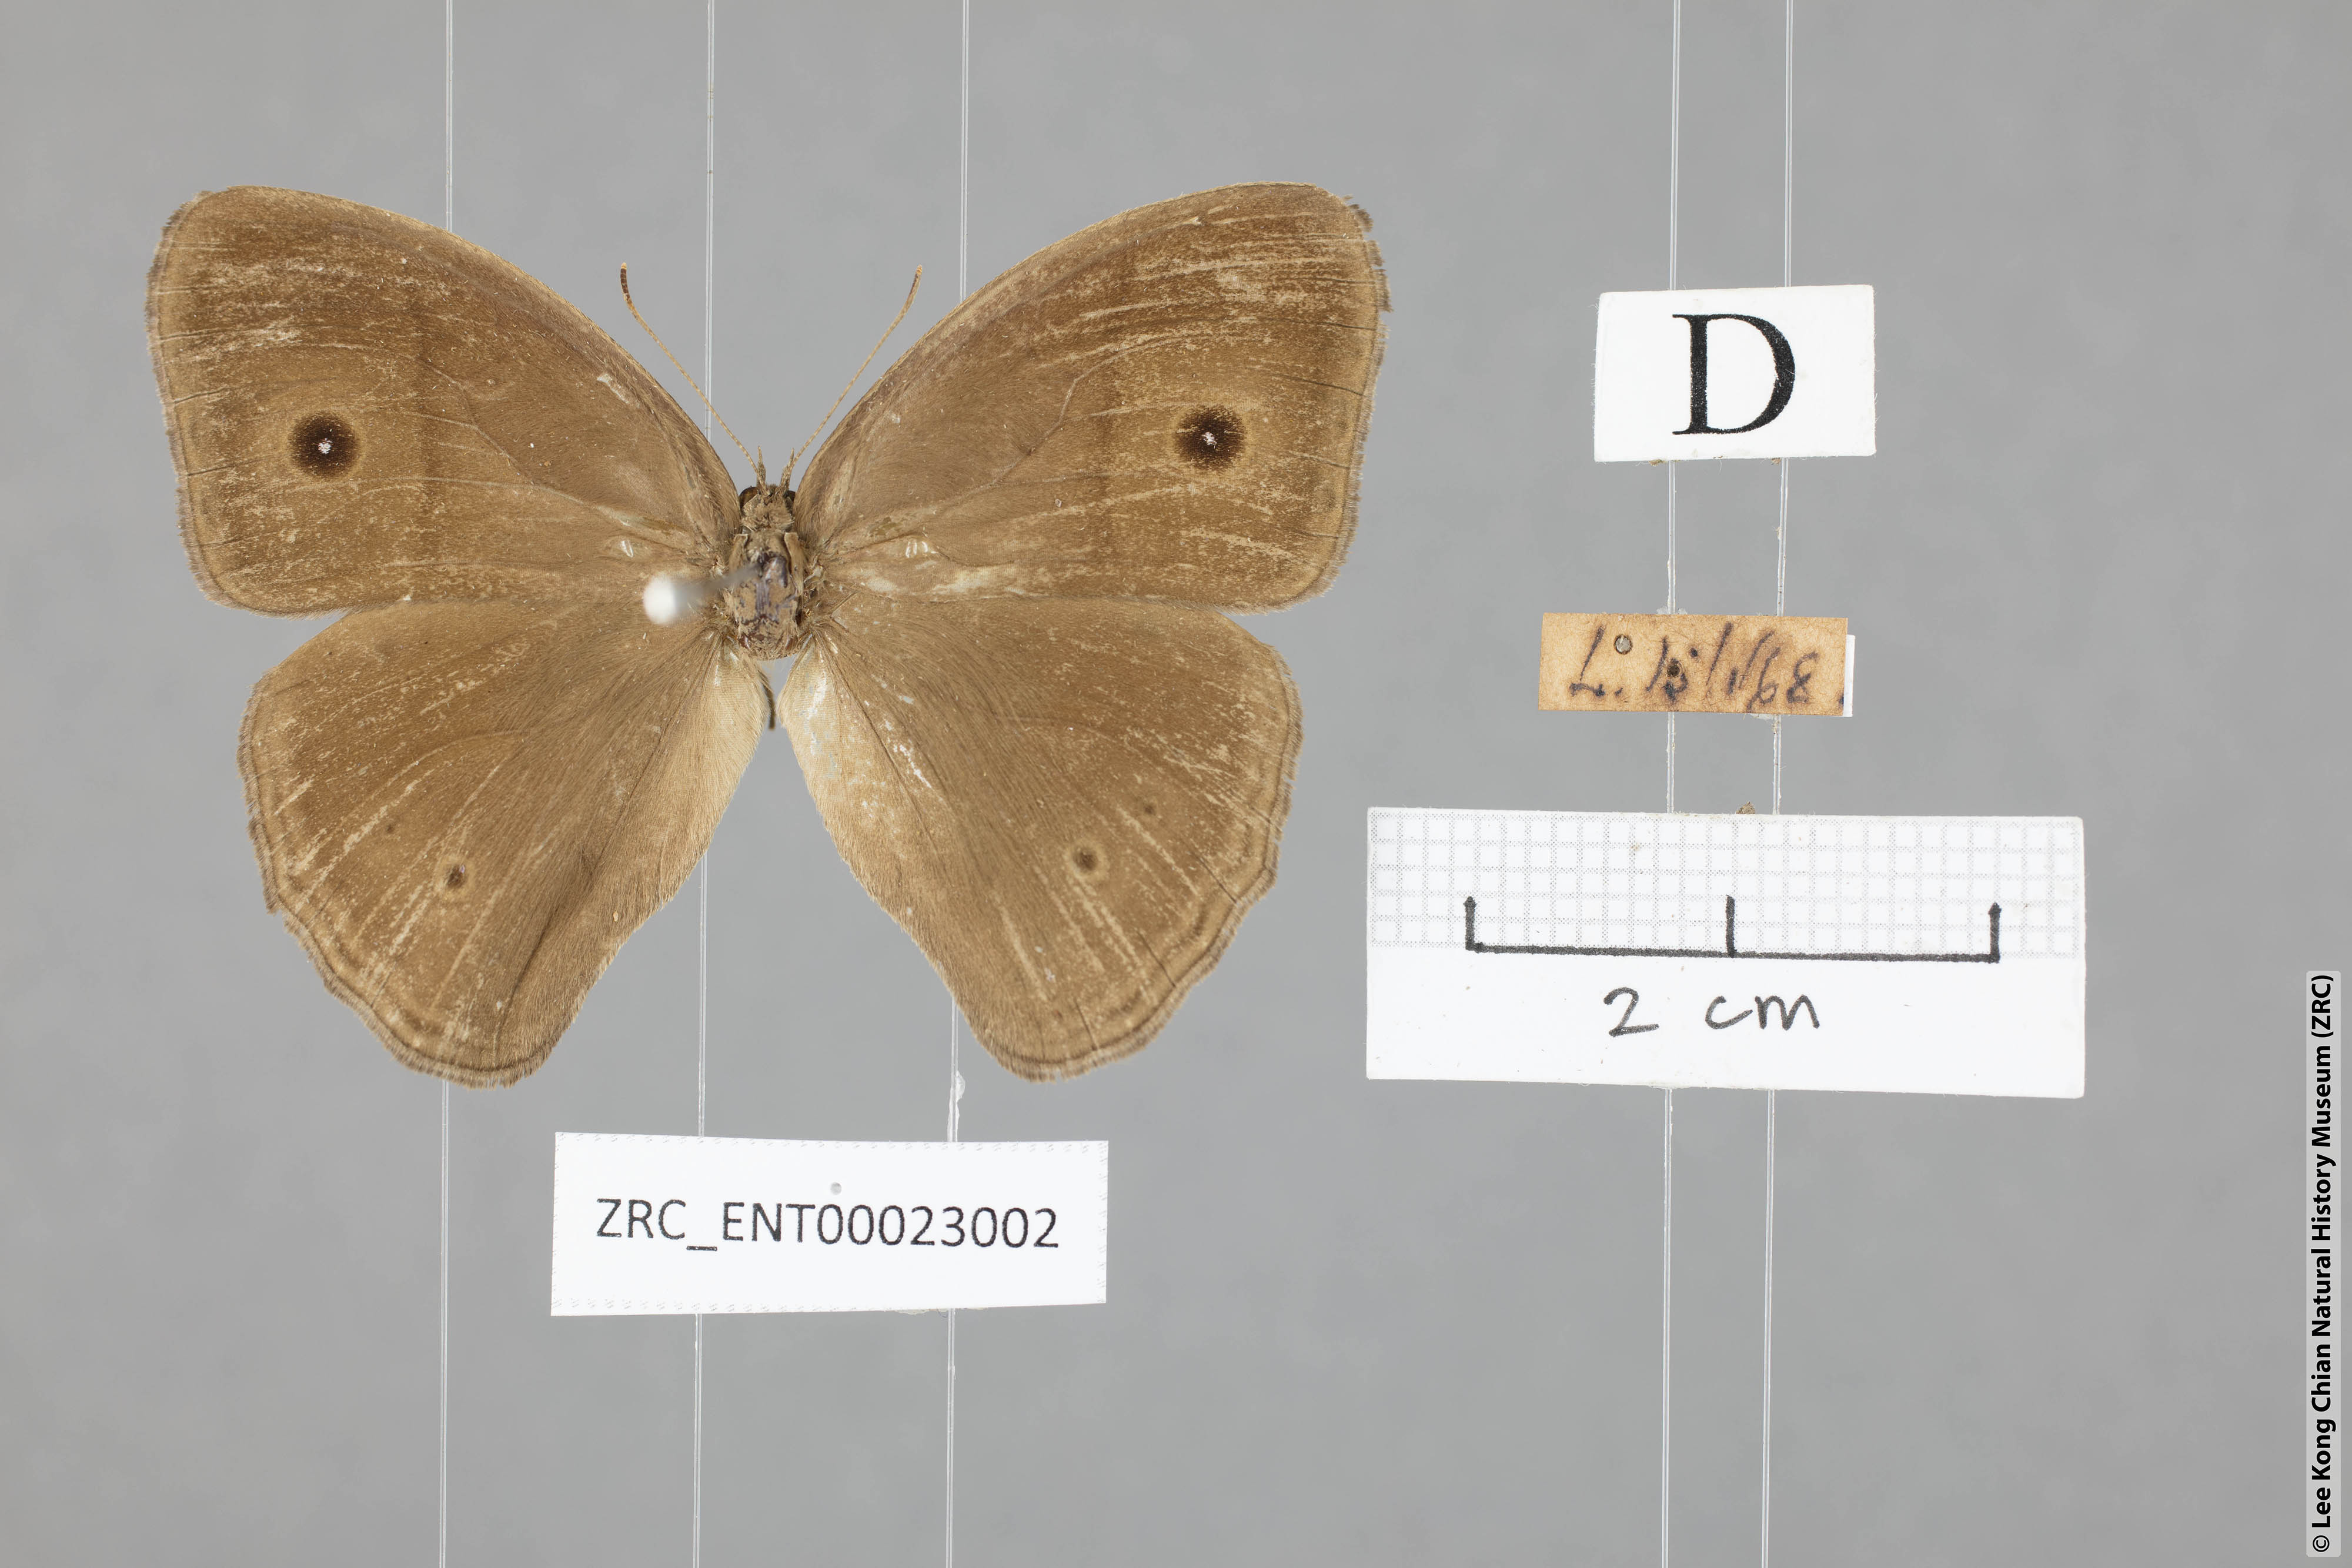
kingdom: Animalia
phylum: Arthropoda
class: Insecta
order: Lepidoptera
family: Nymphalidae
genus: Mycalesis
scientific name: Mycalesis perseus
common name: Dingy bushbrown
